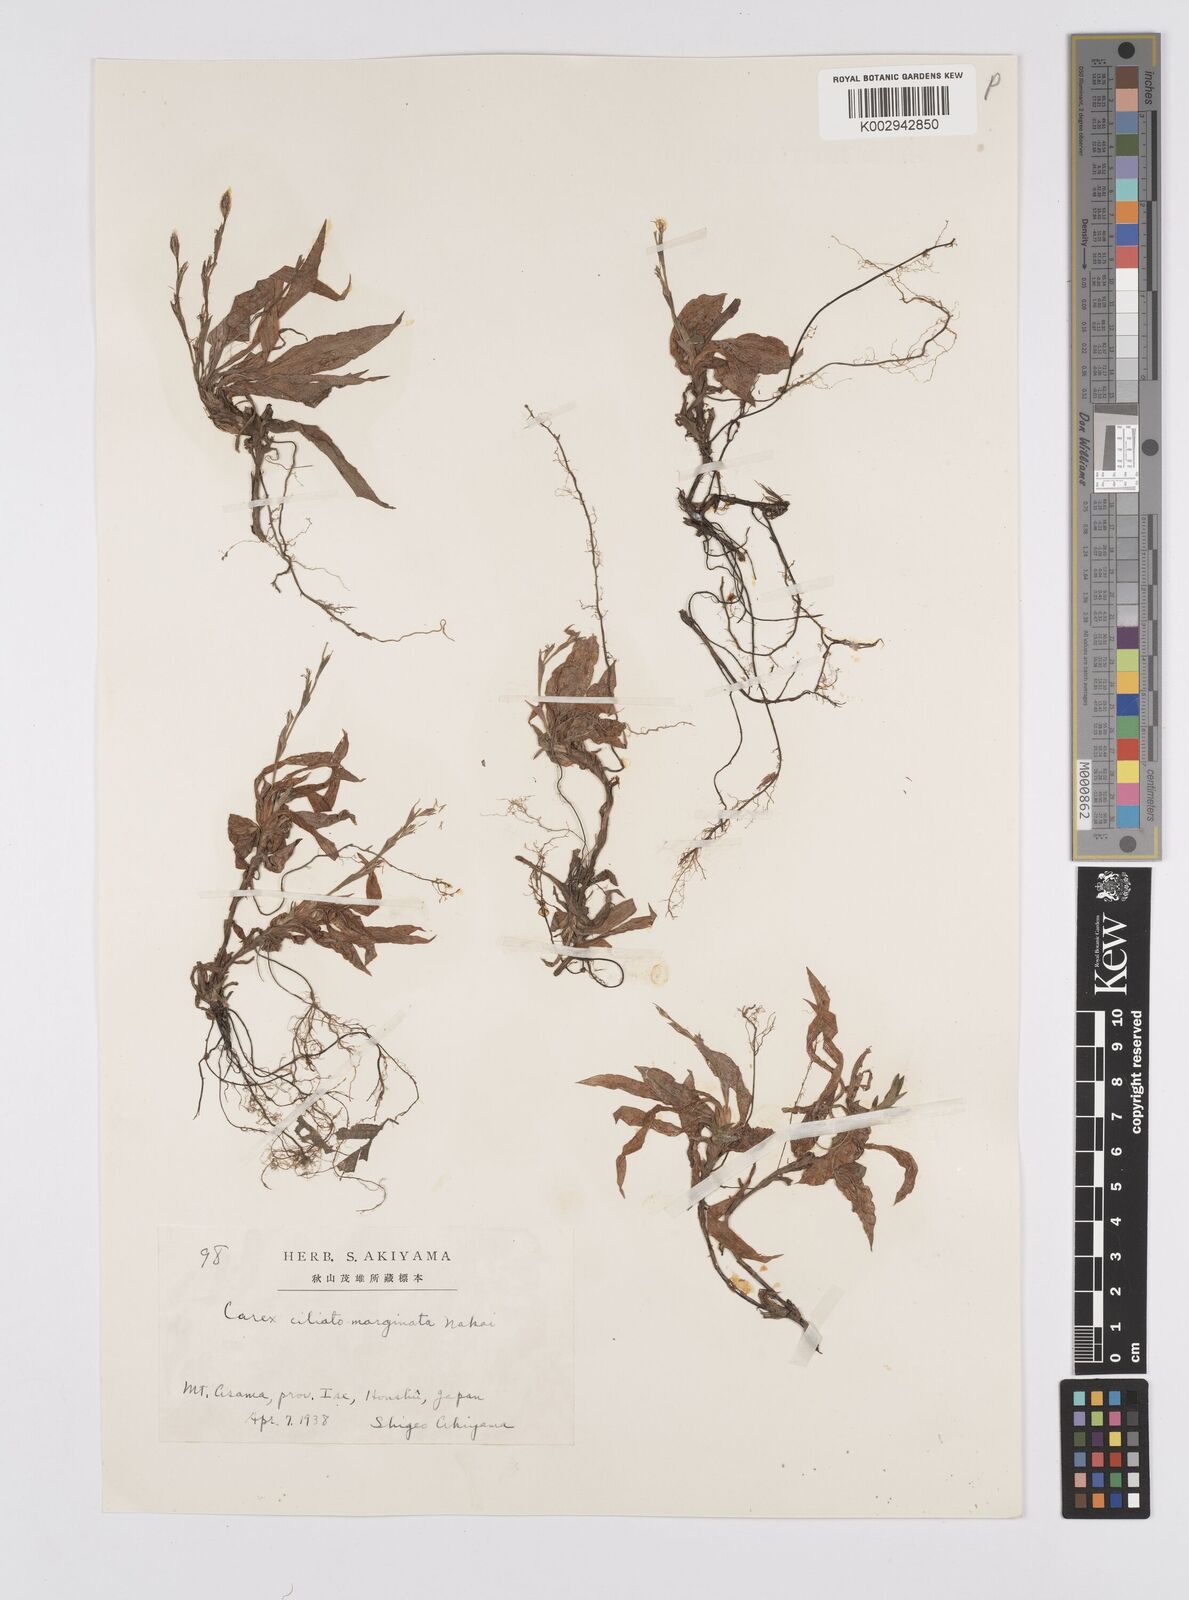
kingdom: Plantae
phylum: Tracheophyta
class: Liliopsida
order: Poales
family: Cyperaceae
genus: Carex
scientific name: Carex siderosticta
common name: Broadleaf sedge
